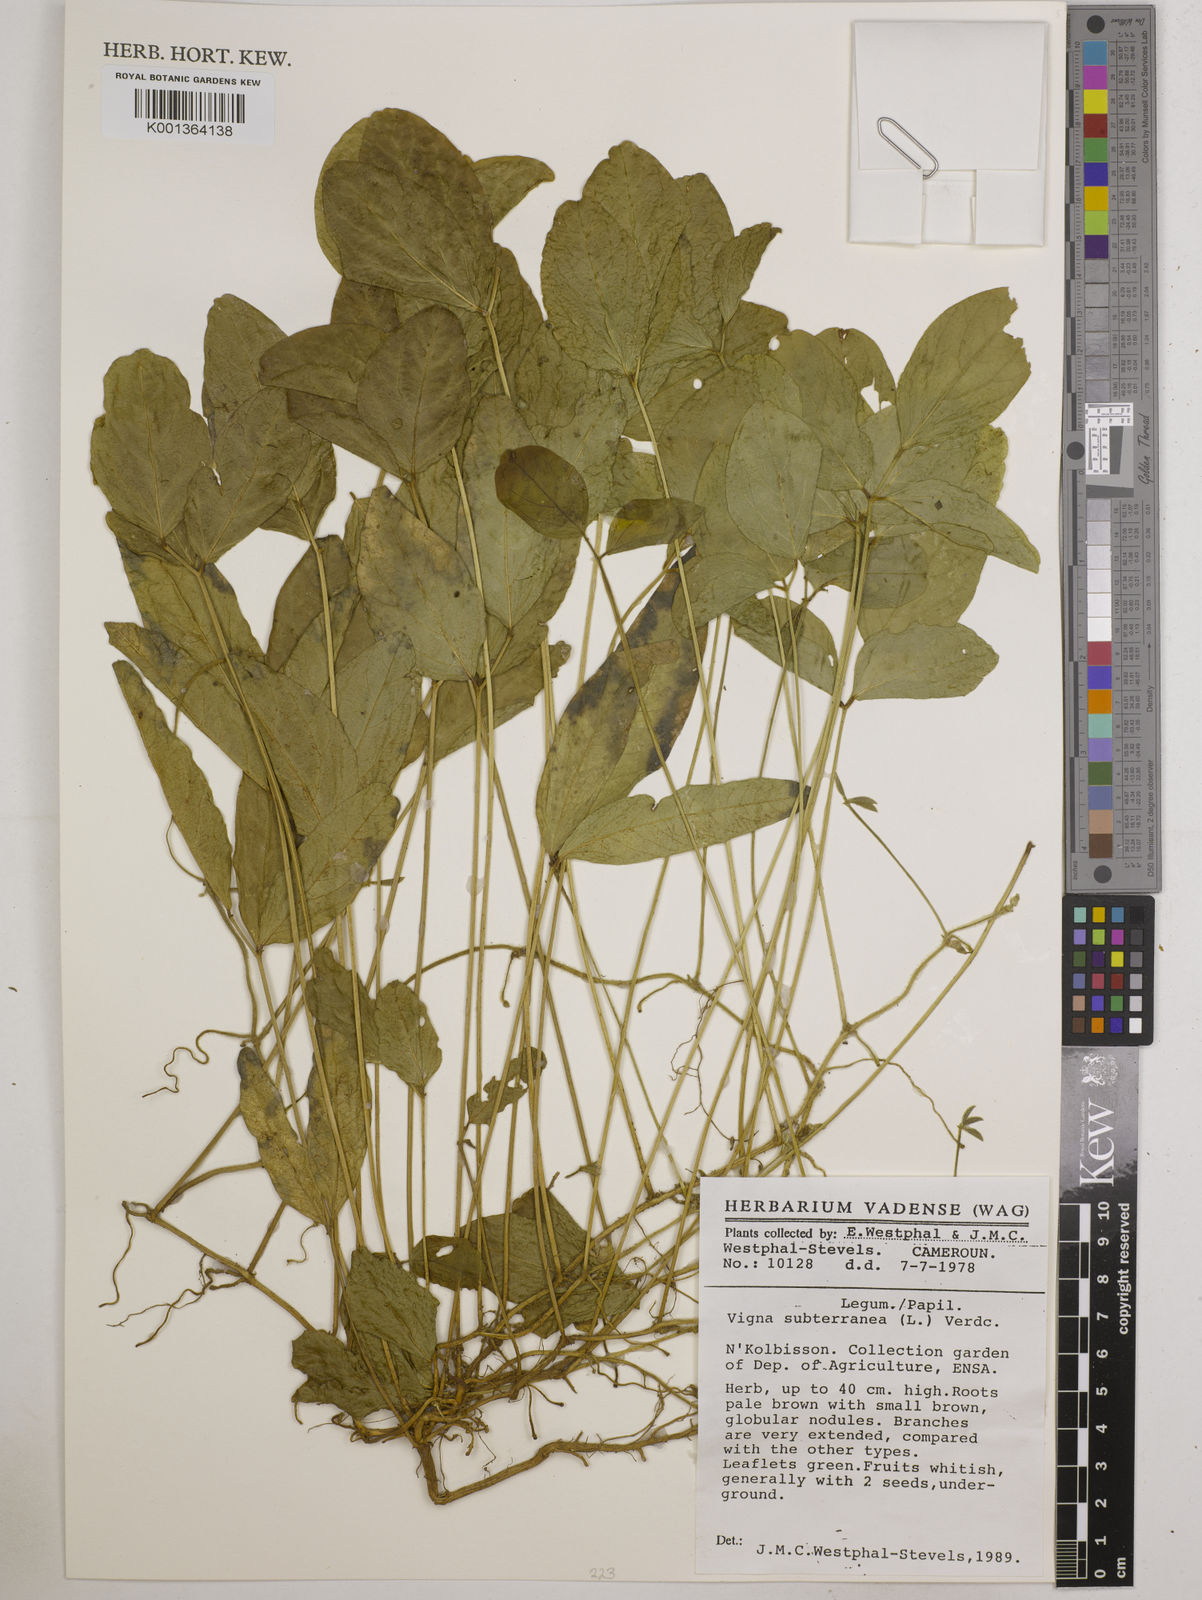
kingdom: Plantae
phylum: Tracheophyta
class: Magnoliopsida
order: Fabales
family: Fabaceae
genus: Vigna
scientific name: Vigna subterranea
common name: Bambara groundnut
